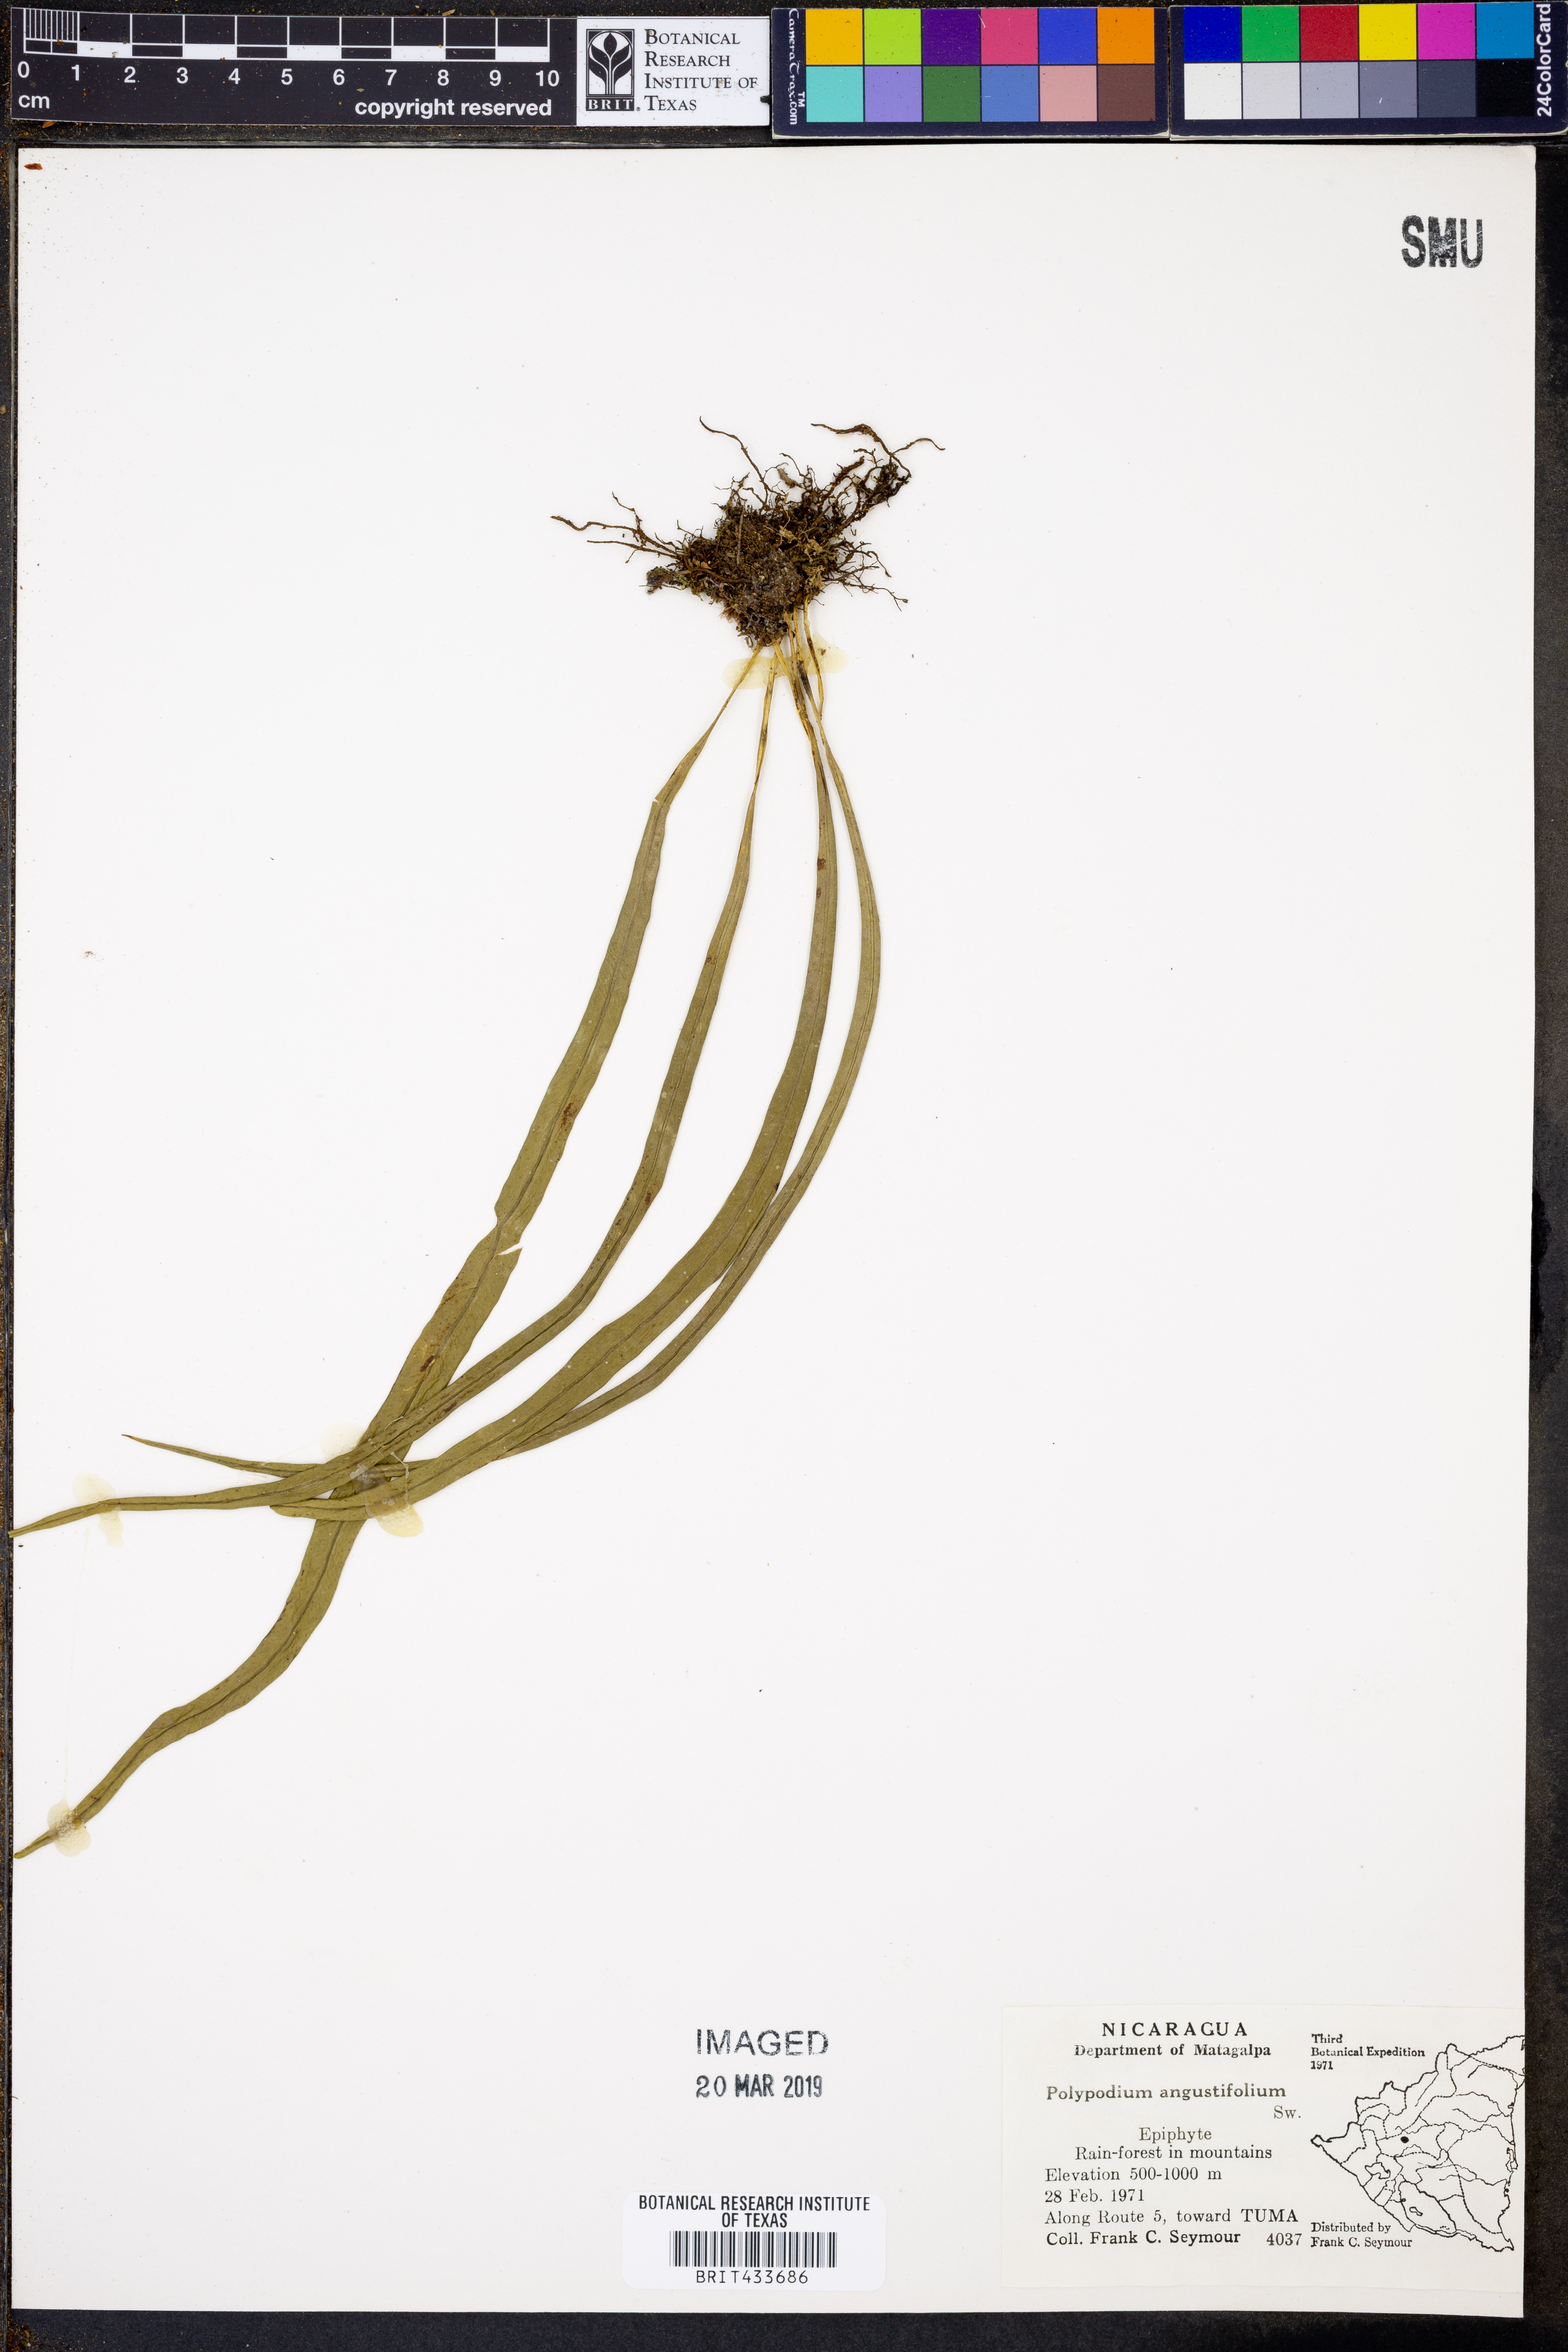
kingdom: Plantae
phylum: Tracheophyta
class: Polypodiopsida
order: Polypodiales
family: Polypodiaceae
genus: Campyloneurum
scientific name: Campyloneurum angustifolium
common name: Narrow-leaf strap fern
